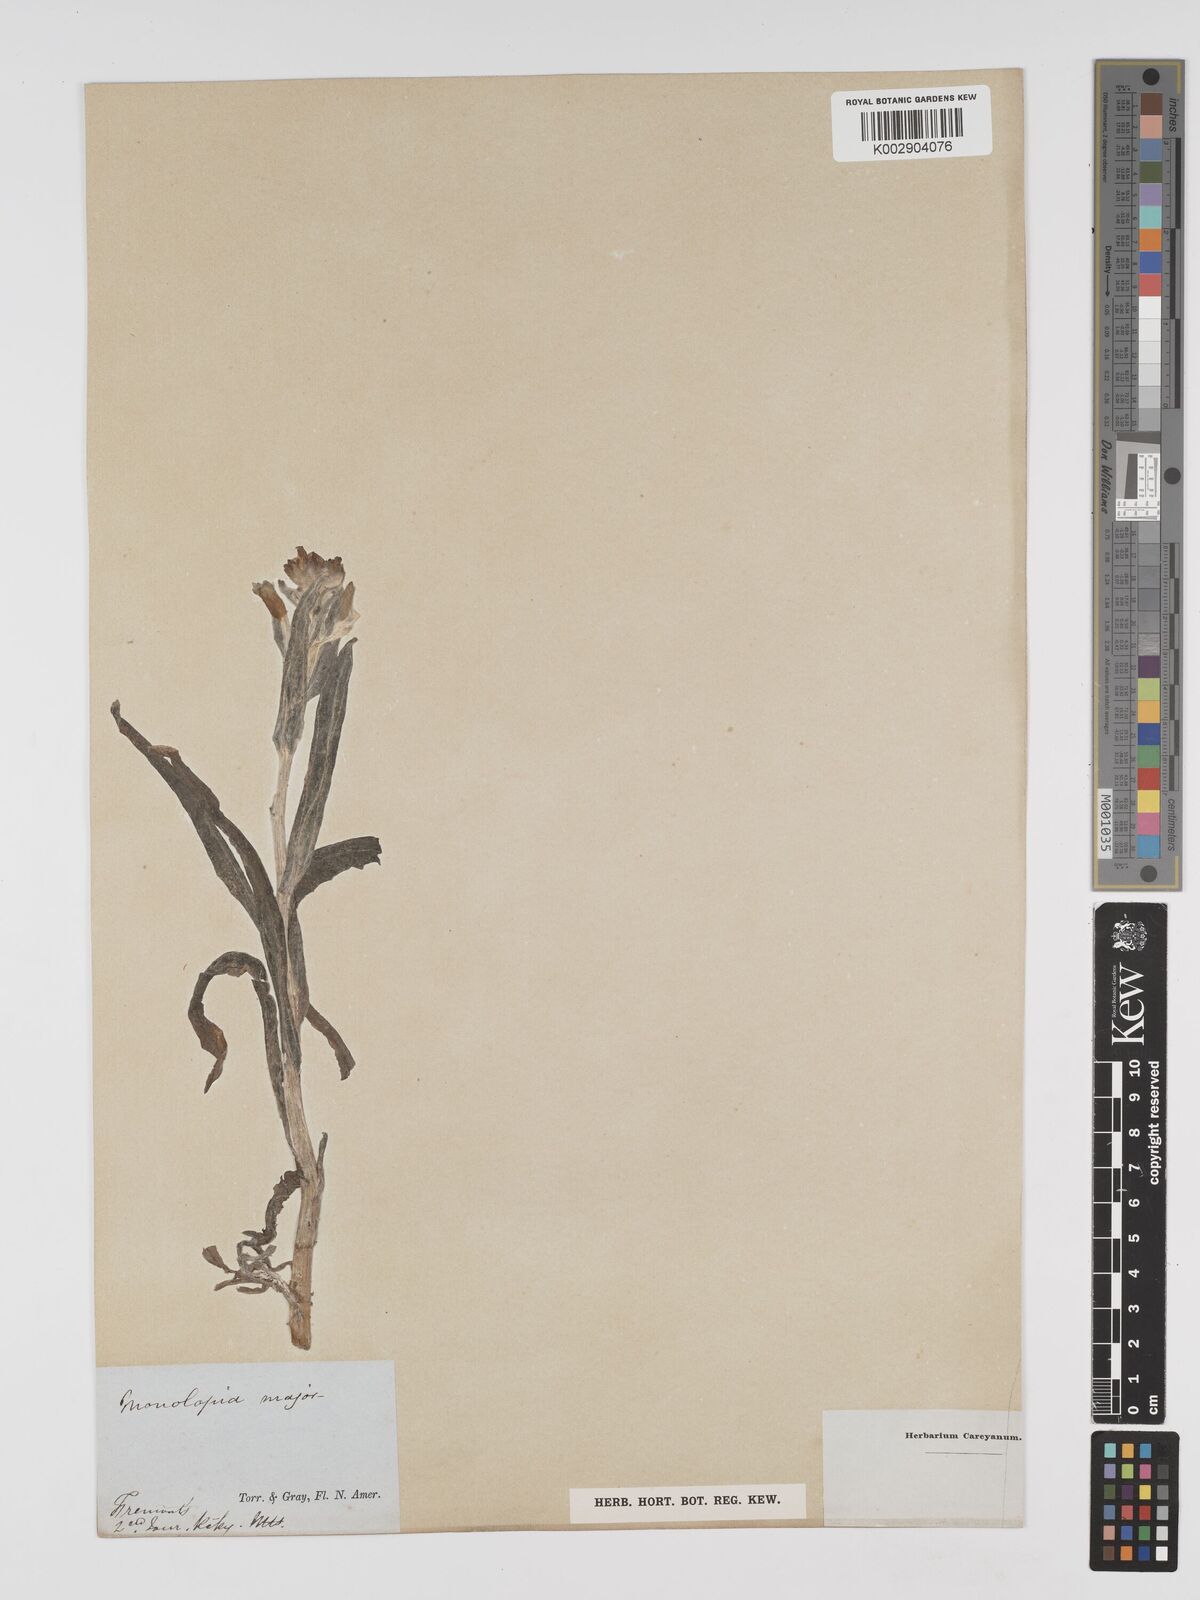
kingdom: Plantae
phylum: Tracheophyta
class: Magnoliopsida
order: Asterales
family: Asteraceae
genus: Monolopia
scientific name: Monolopia major
